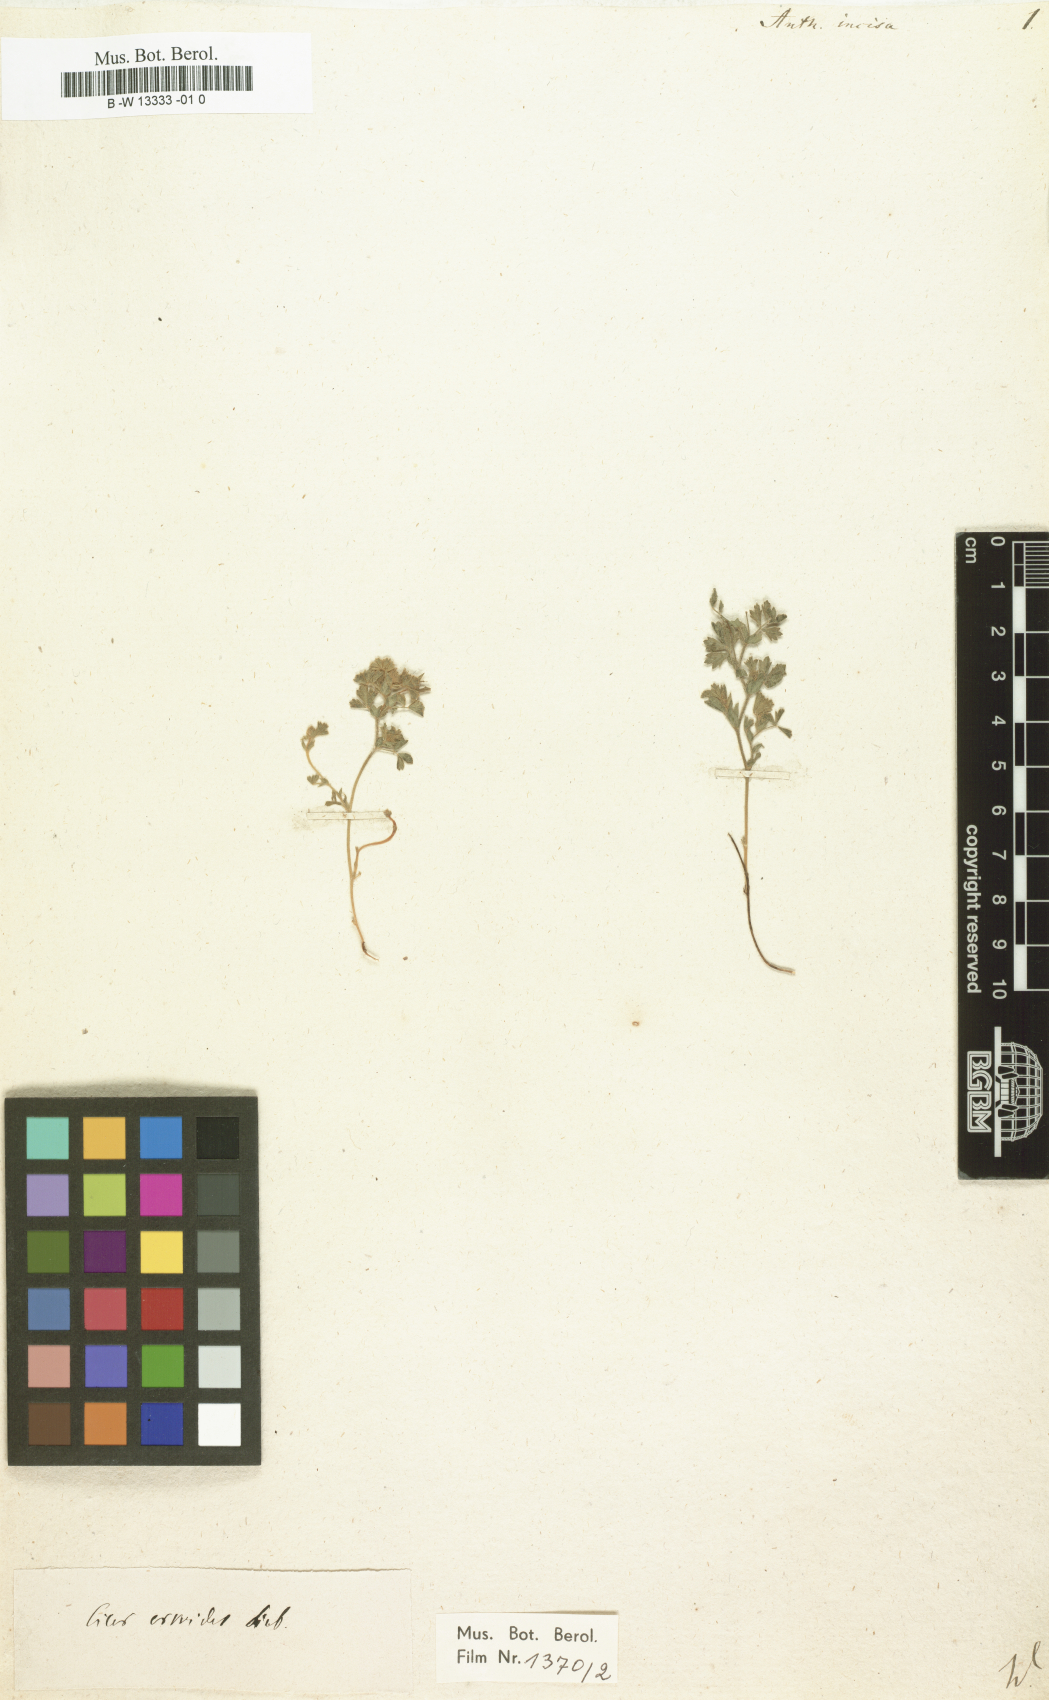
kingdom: Plantae
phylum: Tracheophyta
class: Magnoliopsida
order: Fabales
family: Fabaceae
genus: Cicer
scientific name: Cicer incisum
